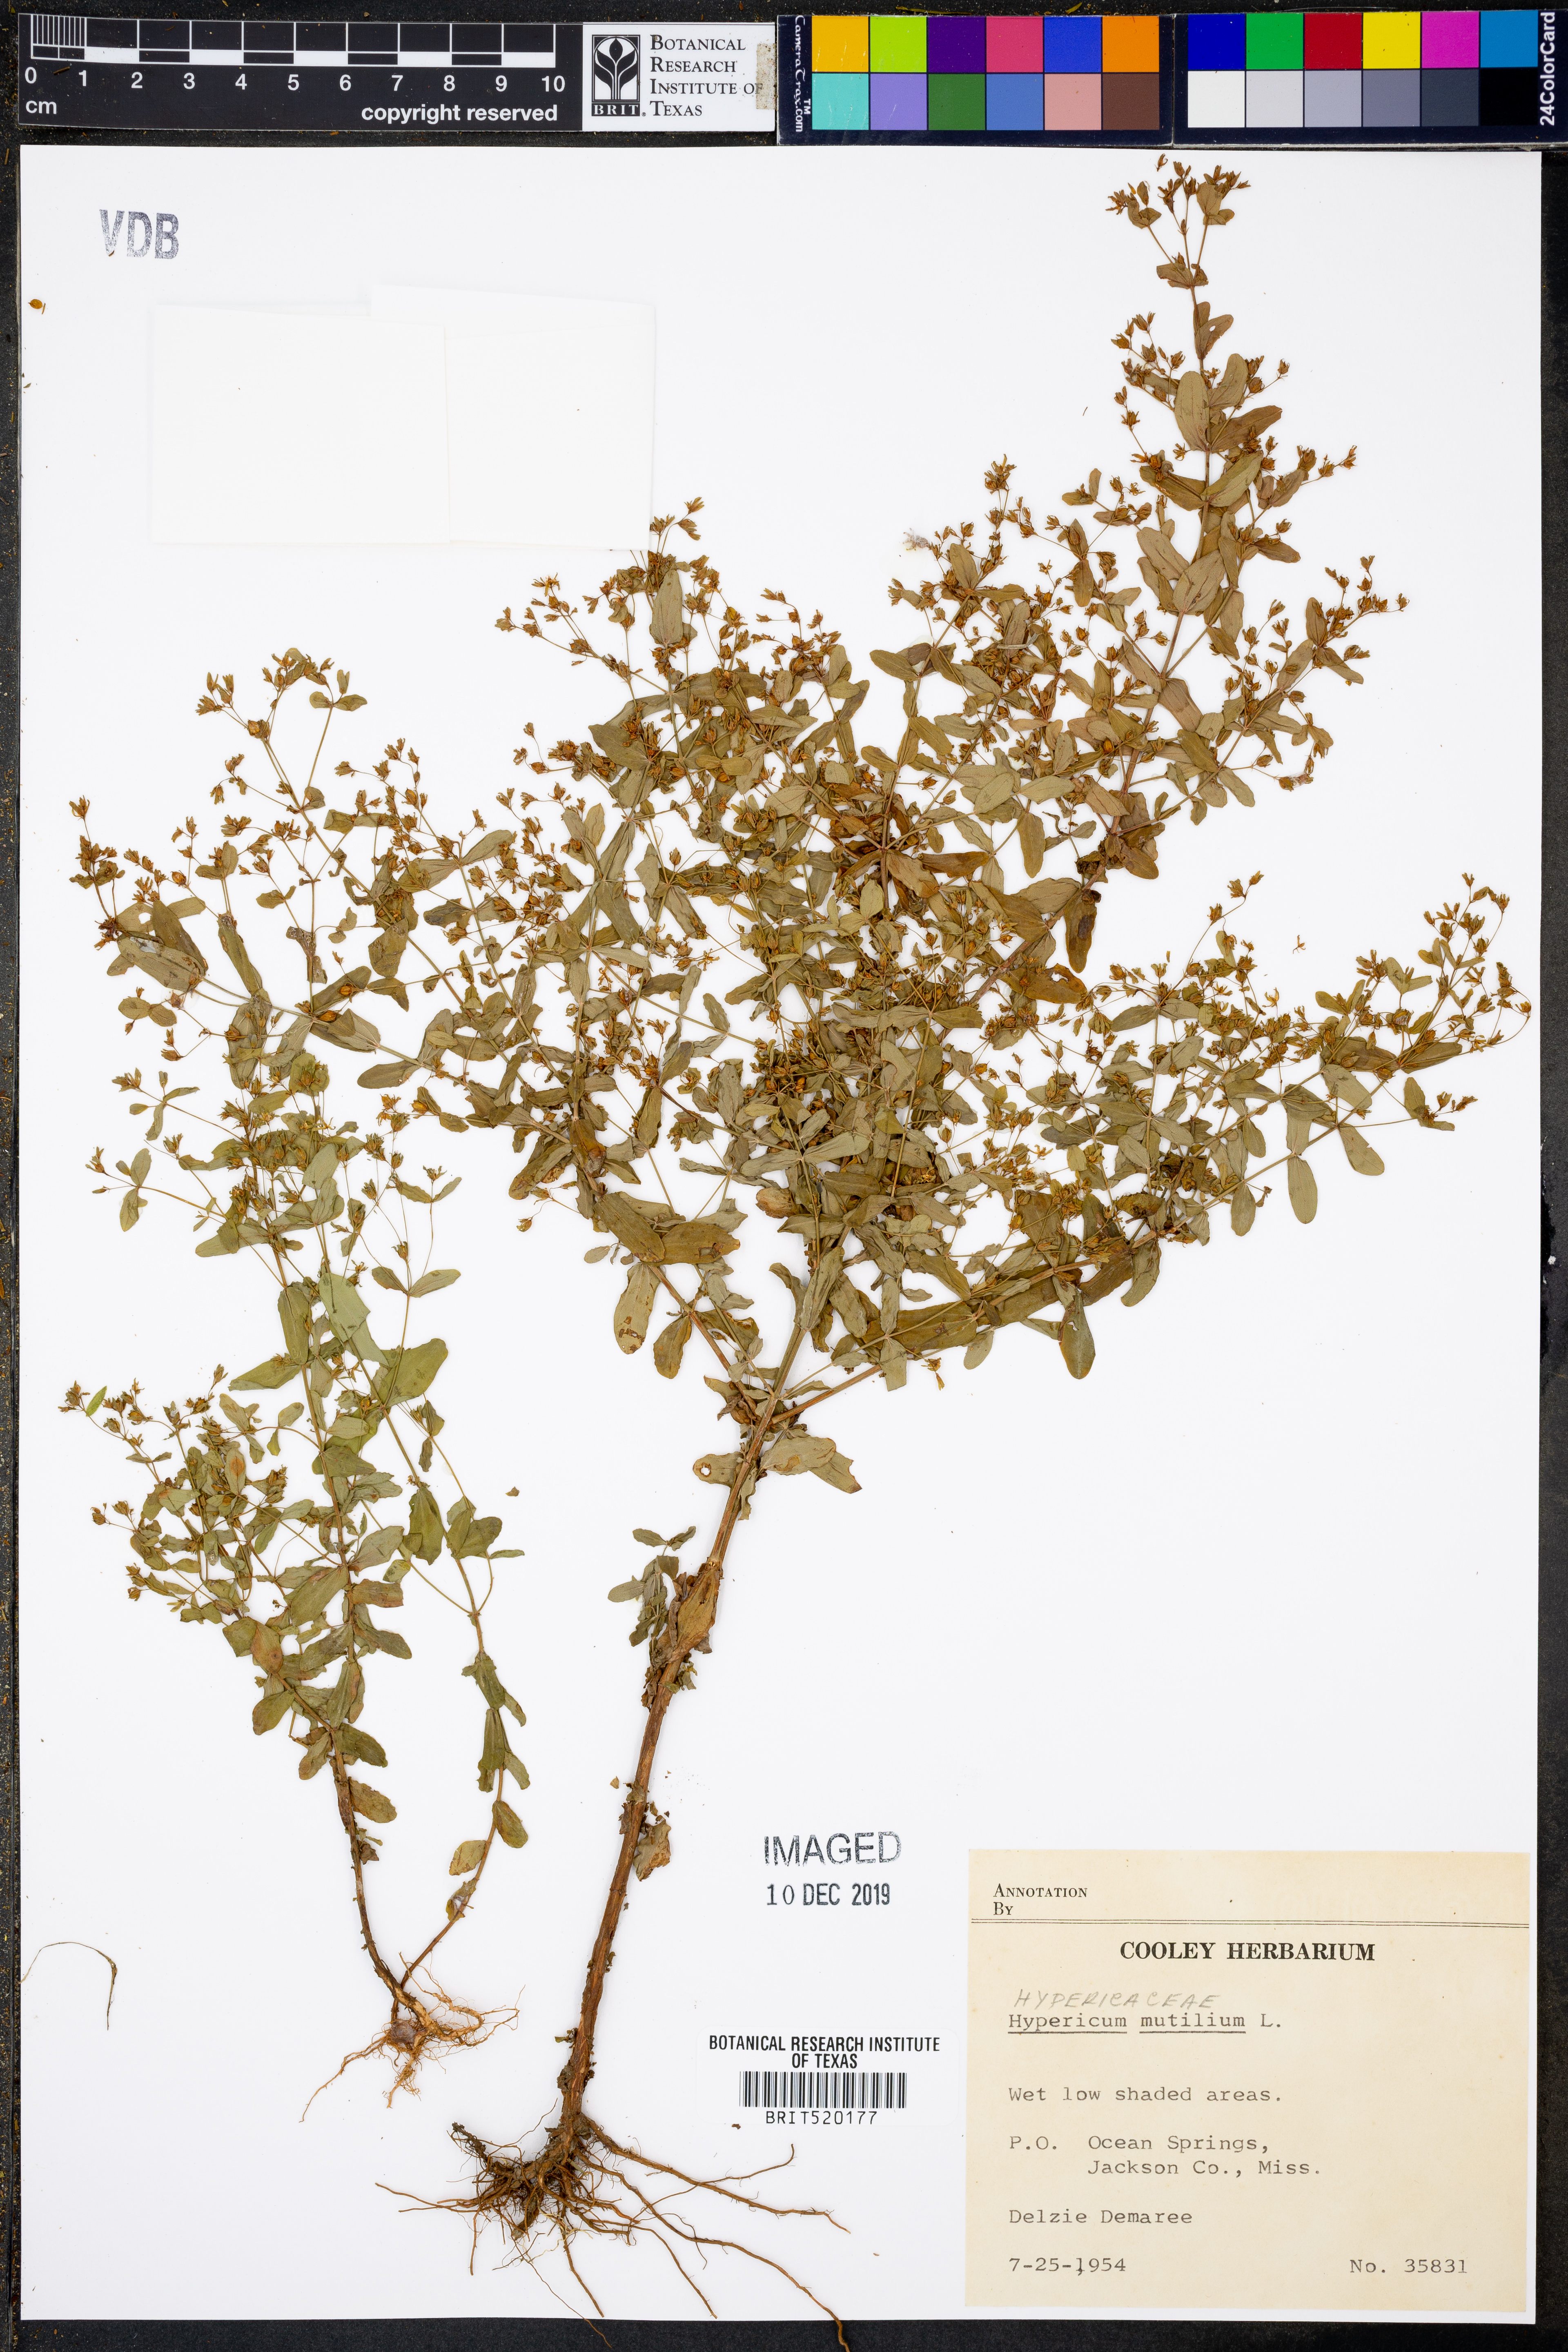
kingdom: Plantae
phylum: Tracheophyta
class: Magnoliopsida
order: Malpighiales
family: Hypericaceae
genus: Hypericum
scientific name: Hypericum mutilum
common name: Dwarf st. john's-wort
